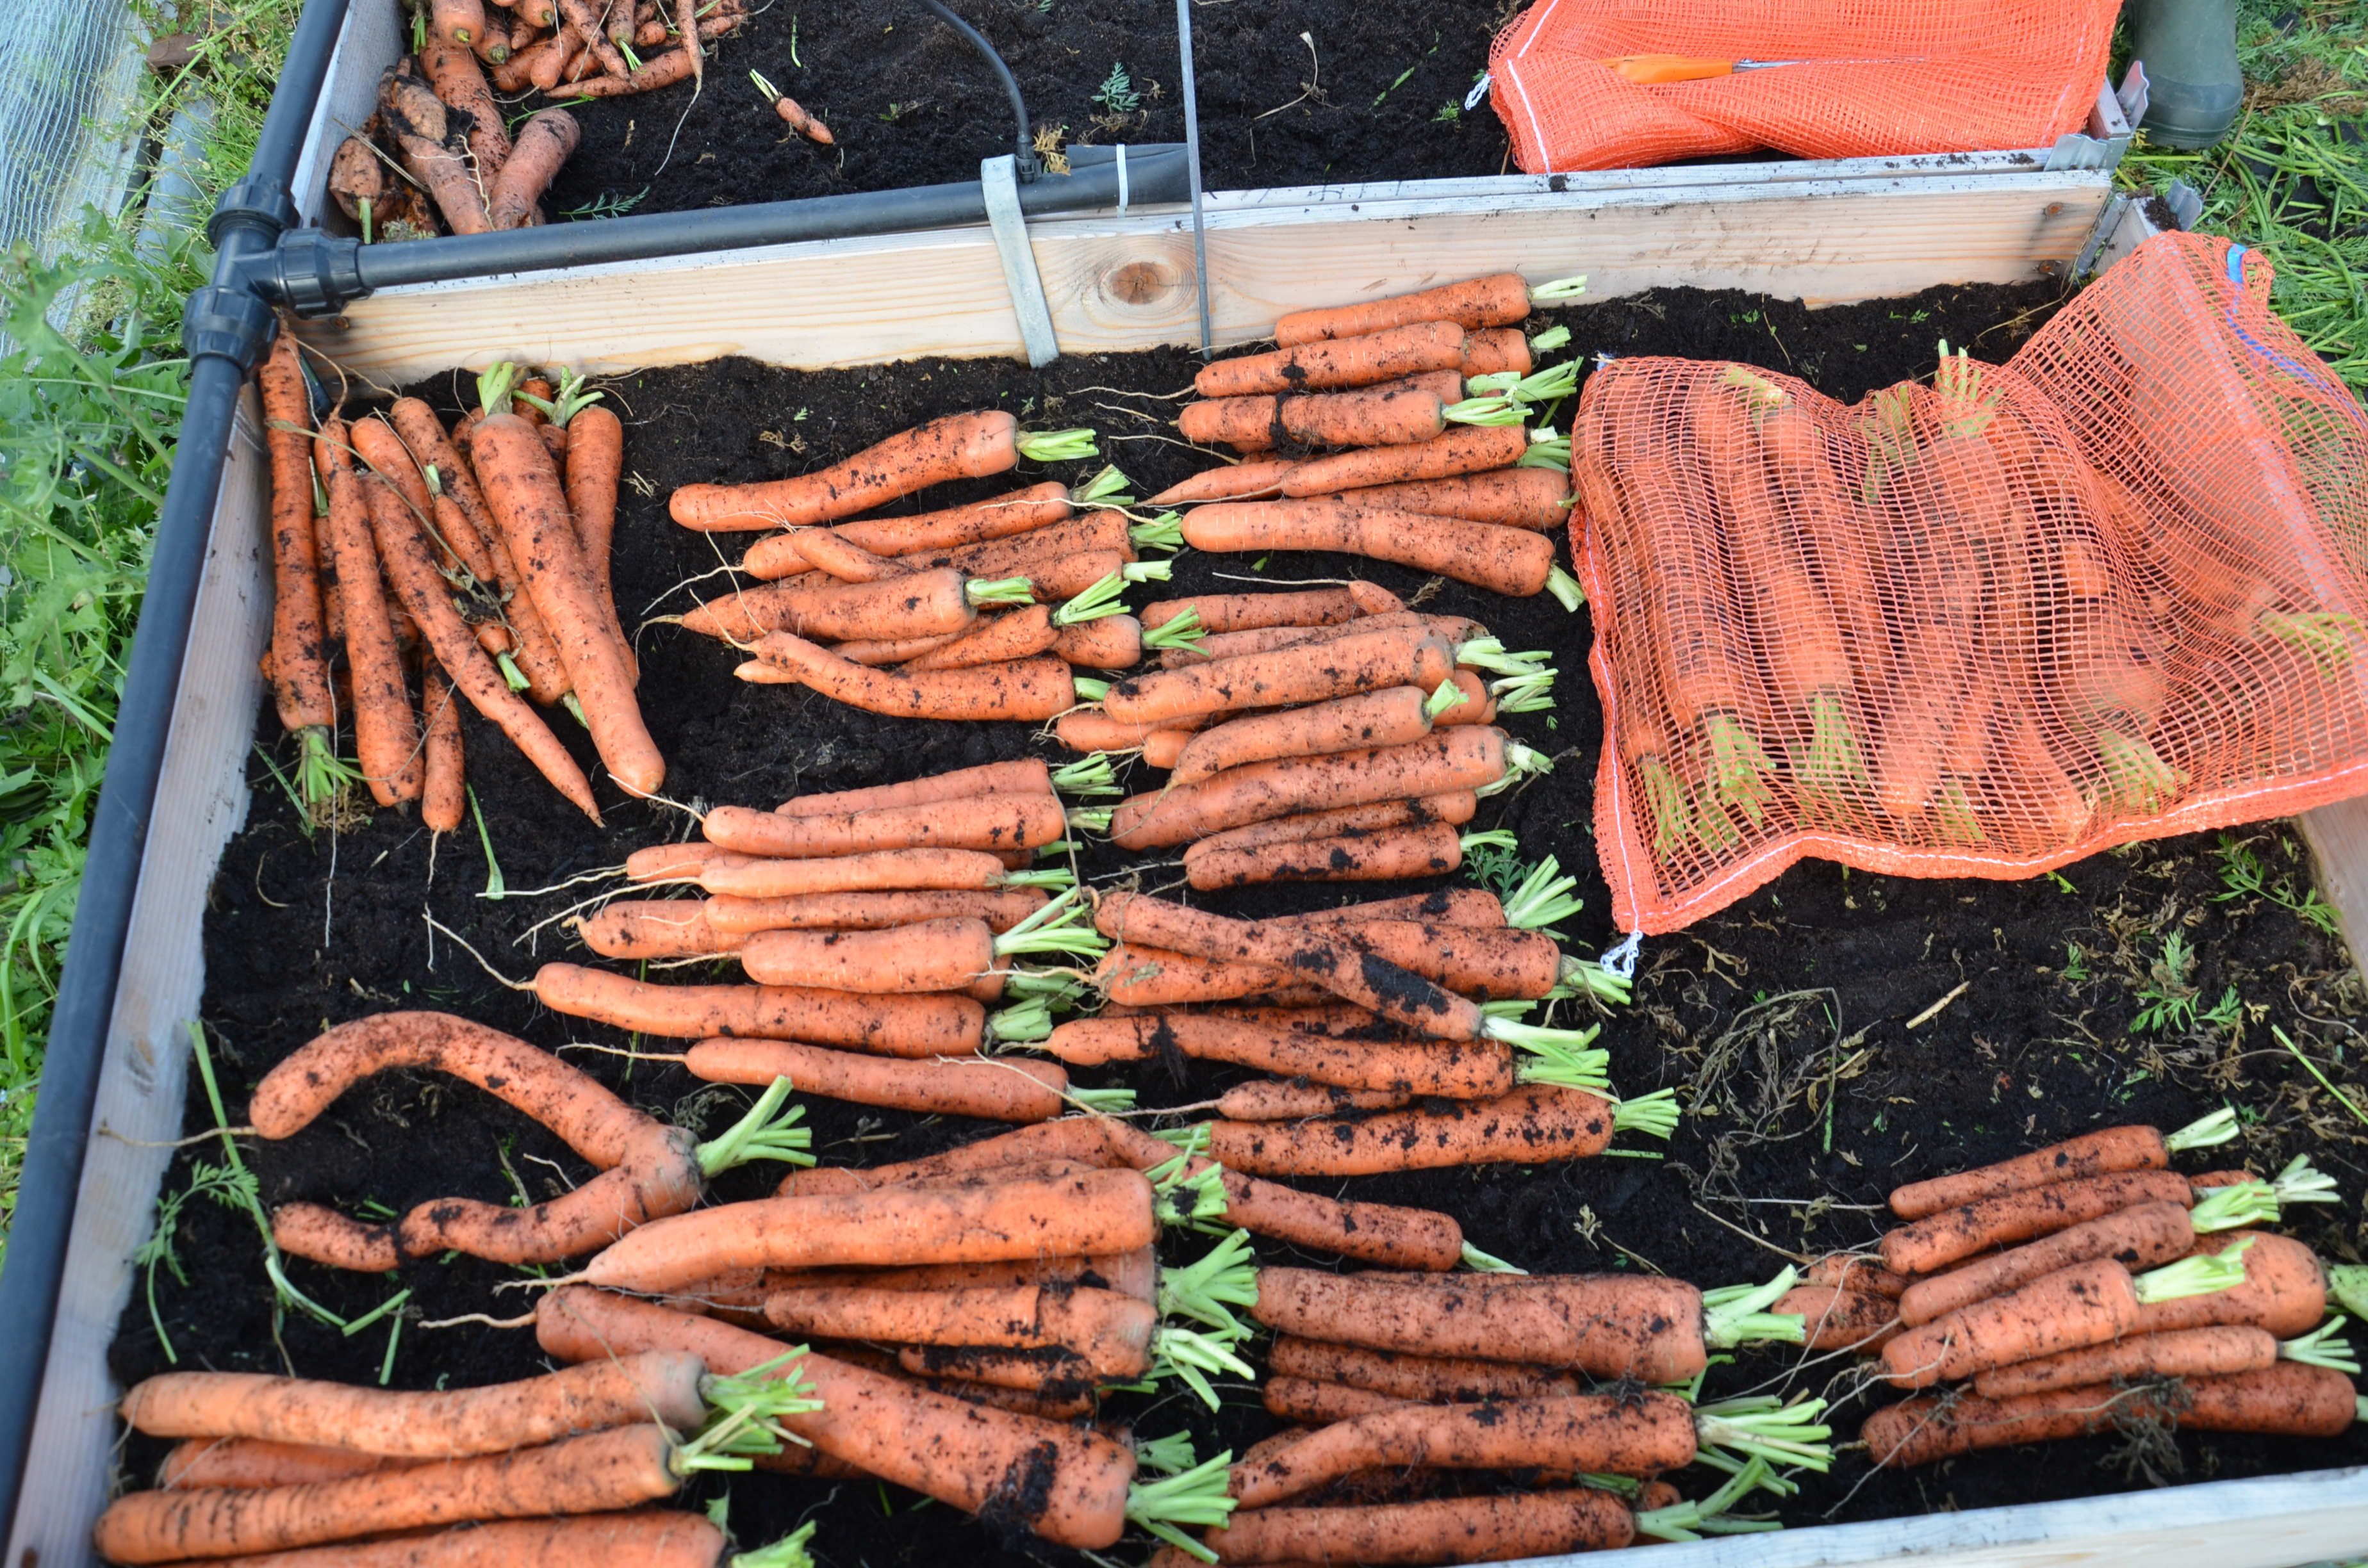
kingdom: Plantae
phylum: Tracheophyta
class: Magnoliopsida
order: Apiales
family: Apiaceae
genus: Daucus
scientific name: Daucus carota
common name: Wild carrot
